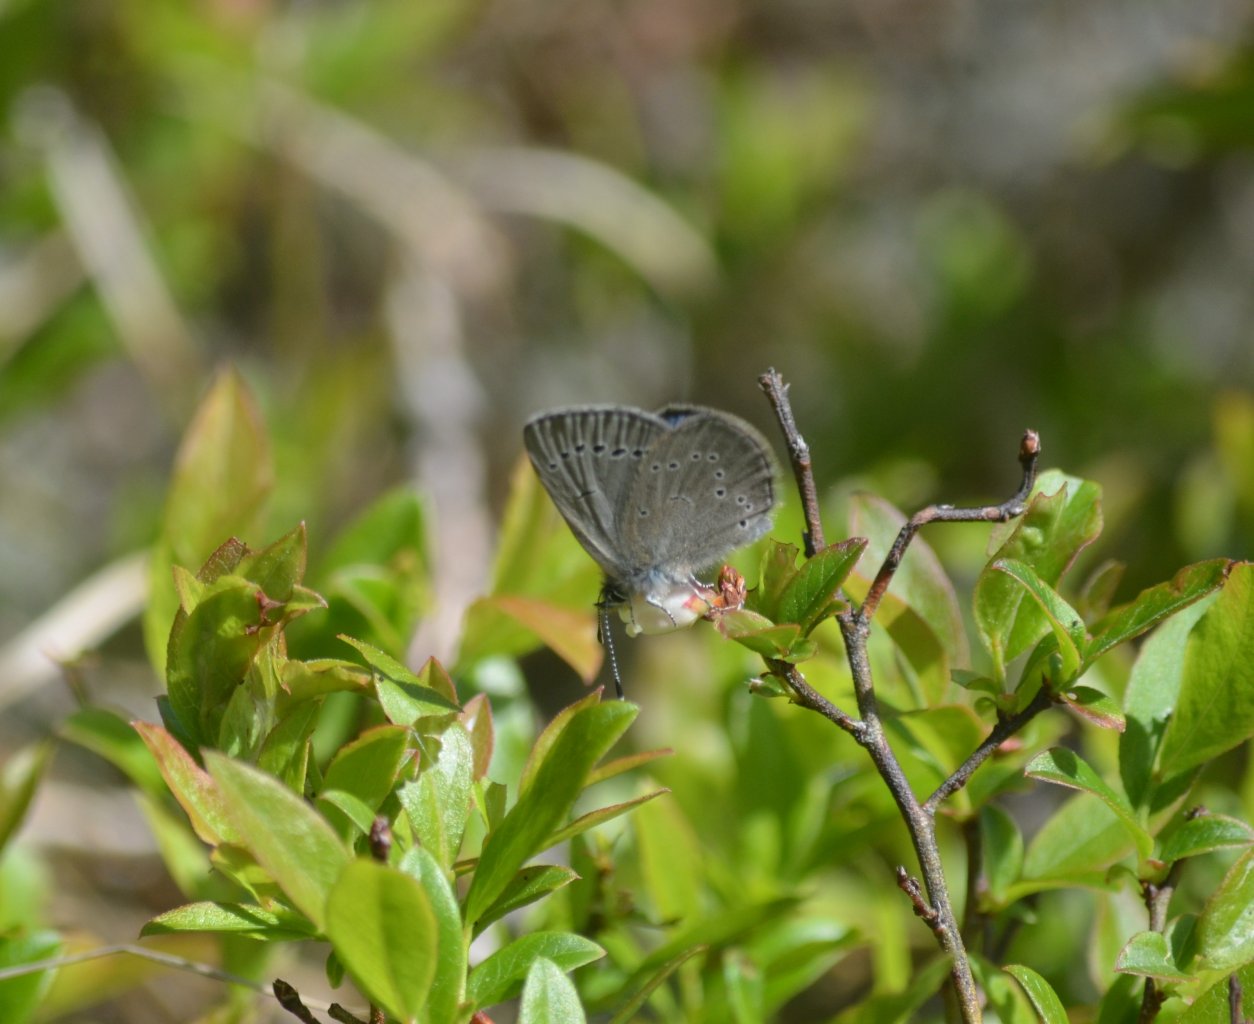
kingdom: Animalia
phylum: Arthropoda
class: Insecta
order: Lepidoptera
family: Lycaenidae
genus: Glaucopsyche
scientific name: Glaucopsyche lygdamus
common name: Silvery Blue
